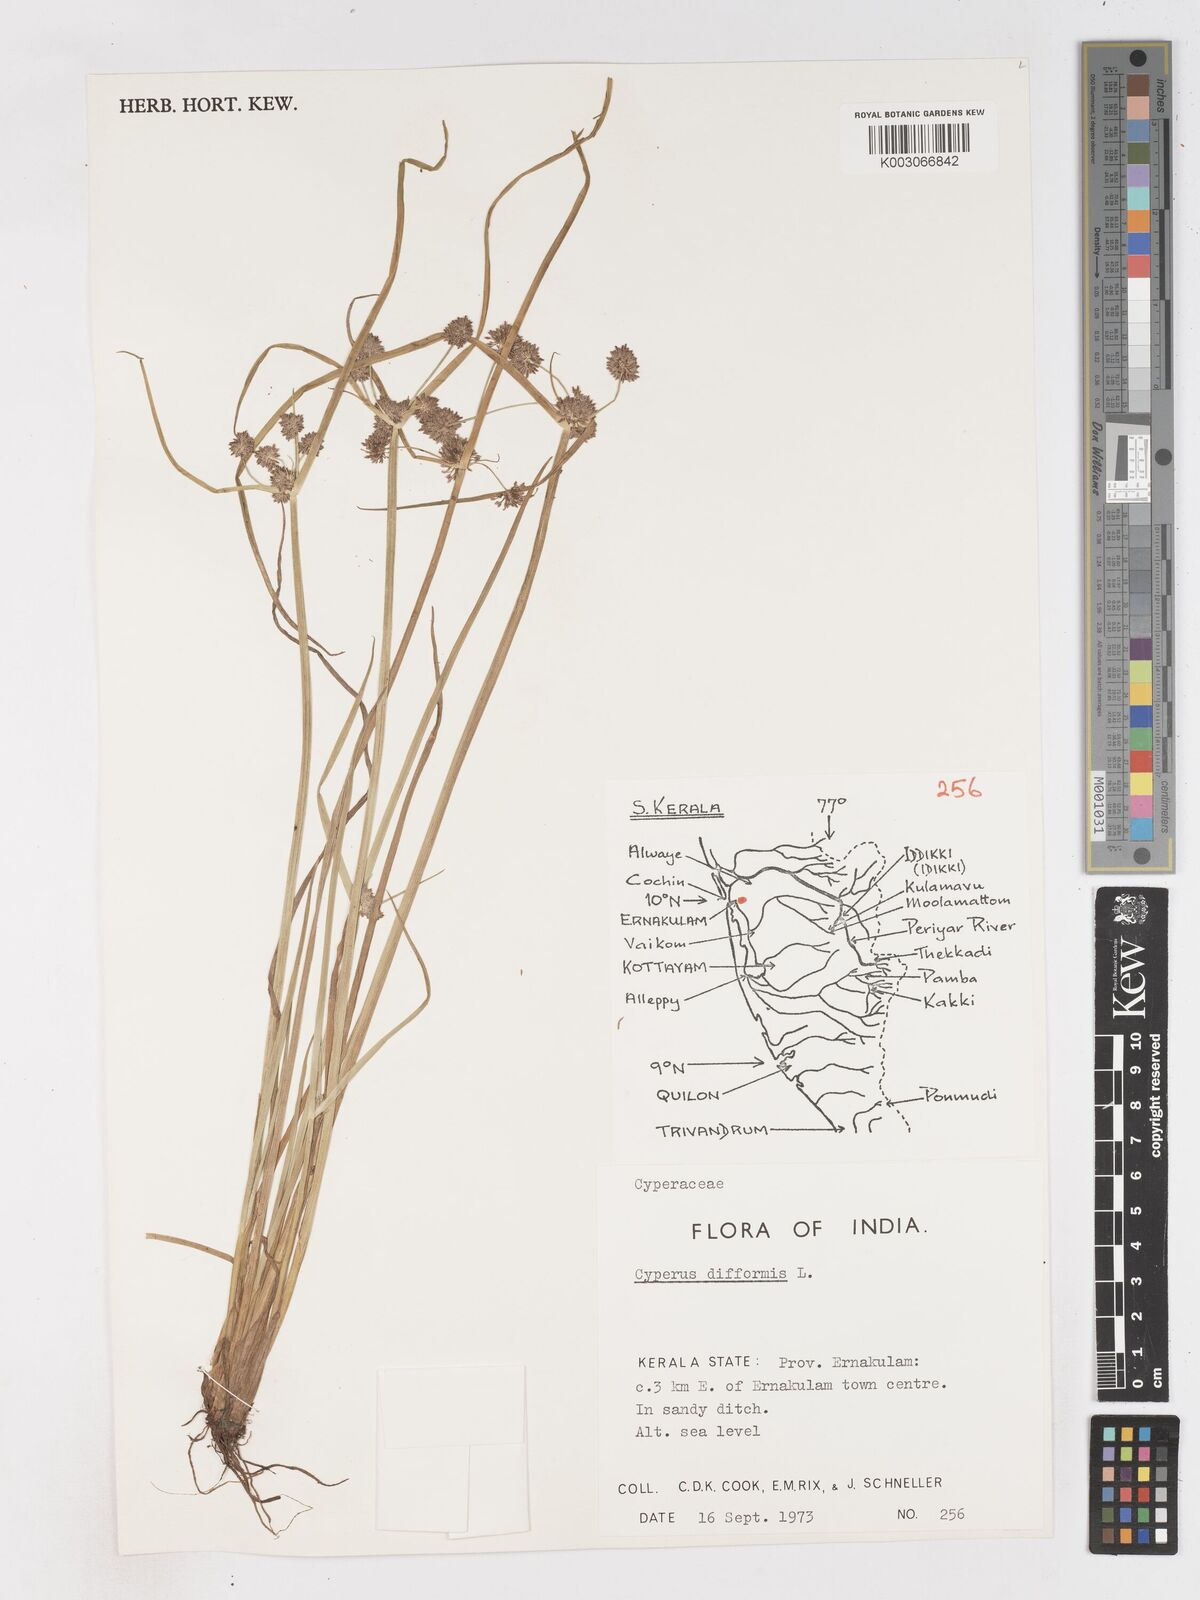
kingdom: Plantae
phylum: Tracheophyta
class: Liliopsida
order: Poales
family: Cyperaceae
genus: Cyperus
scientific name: Cyperus difformis
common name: Variable flatsedge
